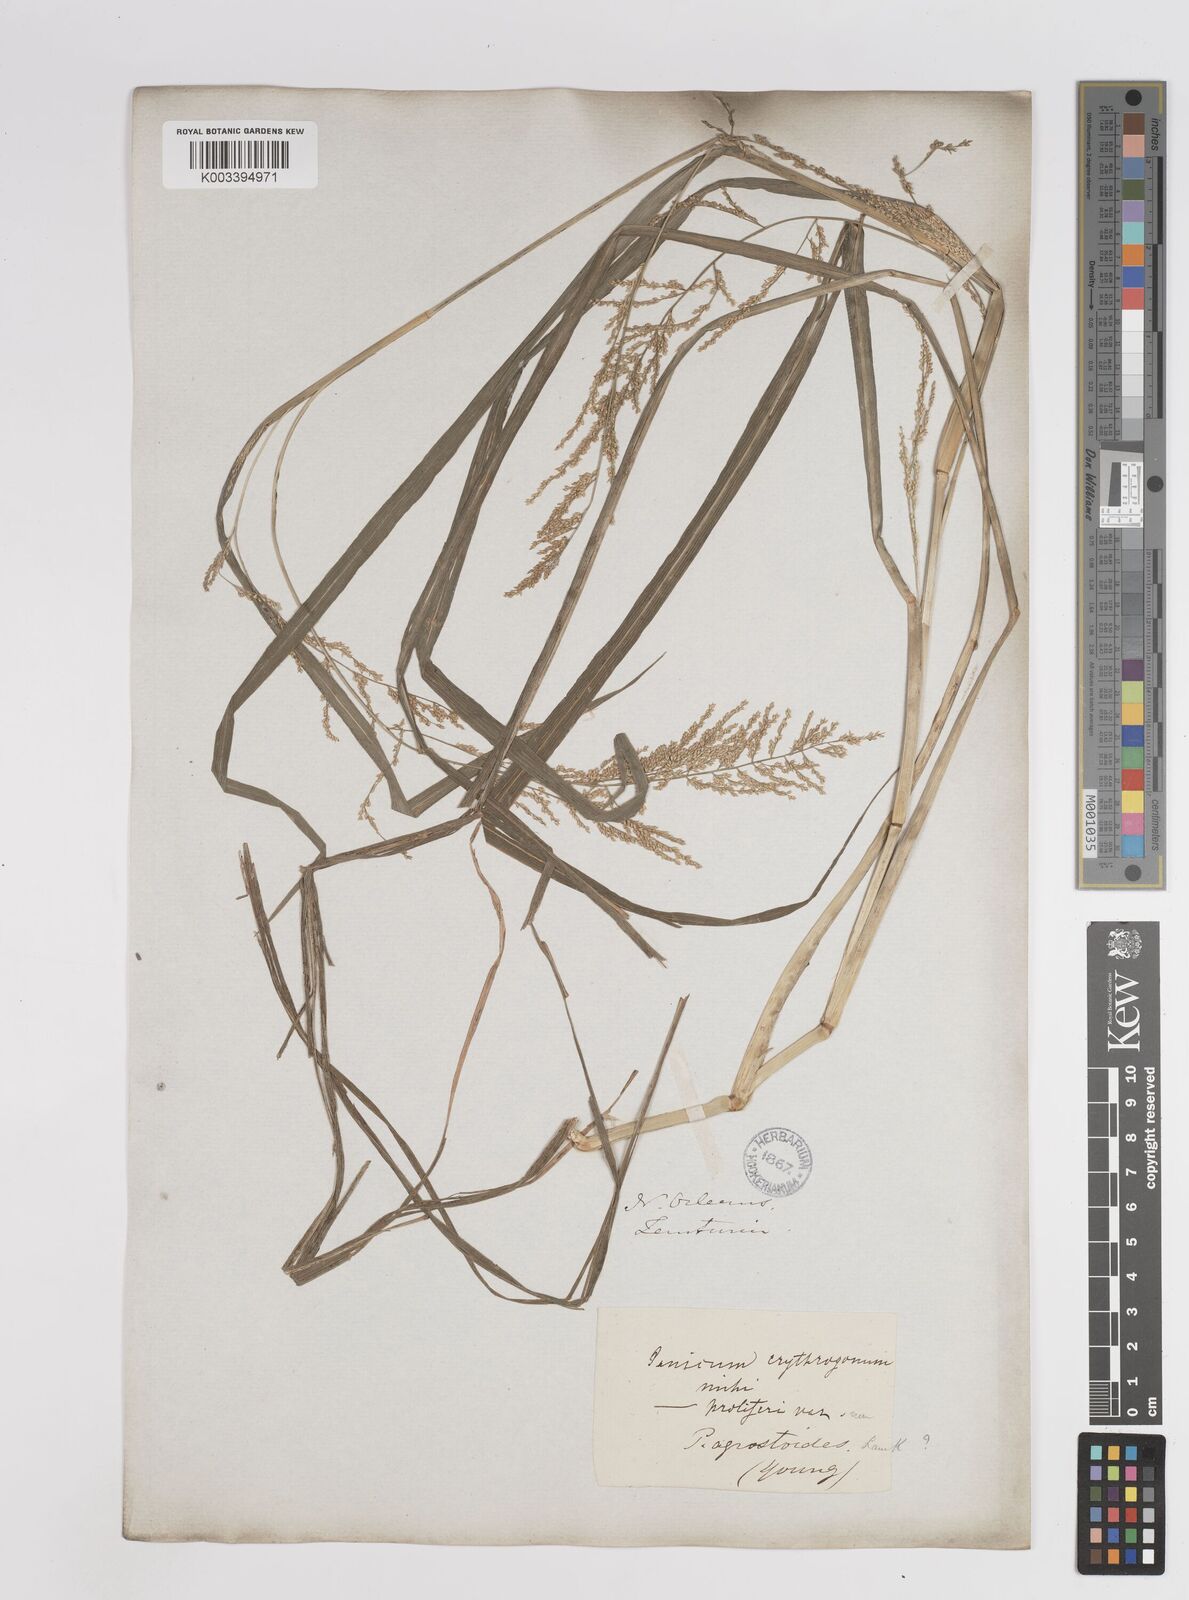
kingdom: Plantae
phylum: Tracheophyta
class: Liliopsida
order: Poales
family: Poaceae
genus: Steinchisma
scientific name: Steinchisma laxum
